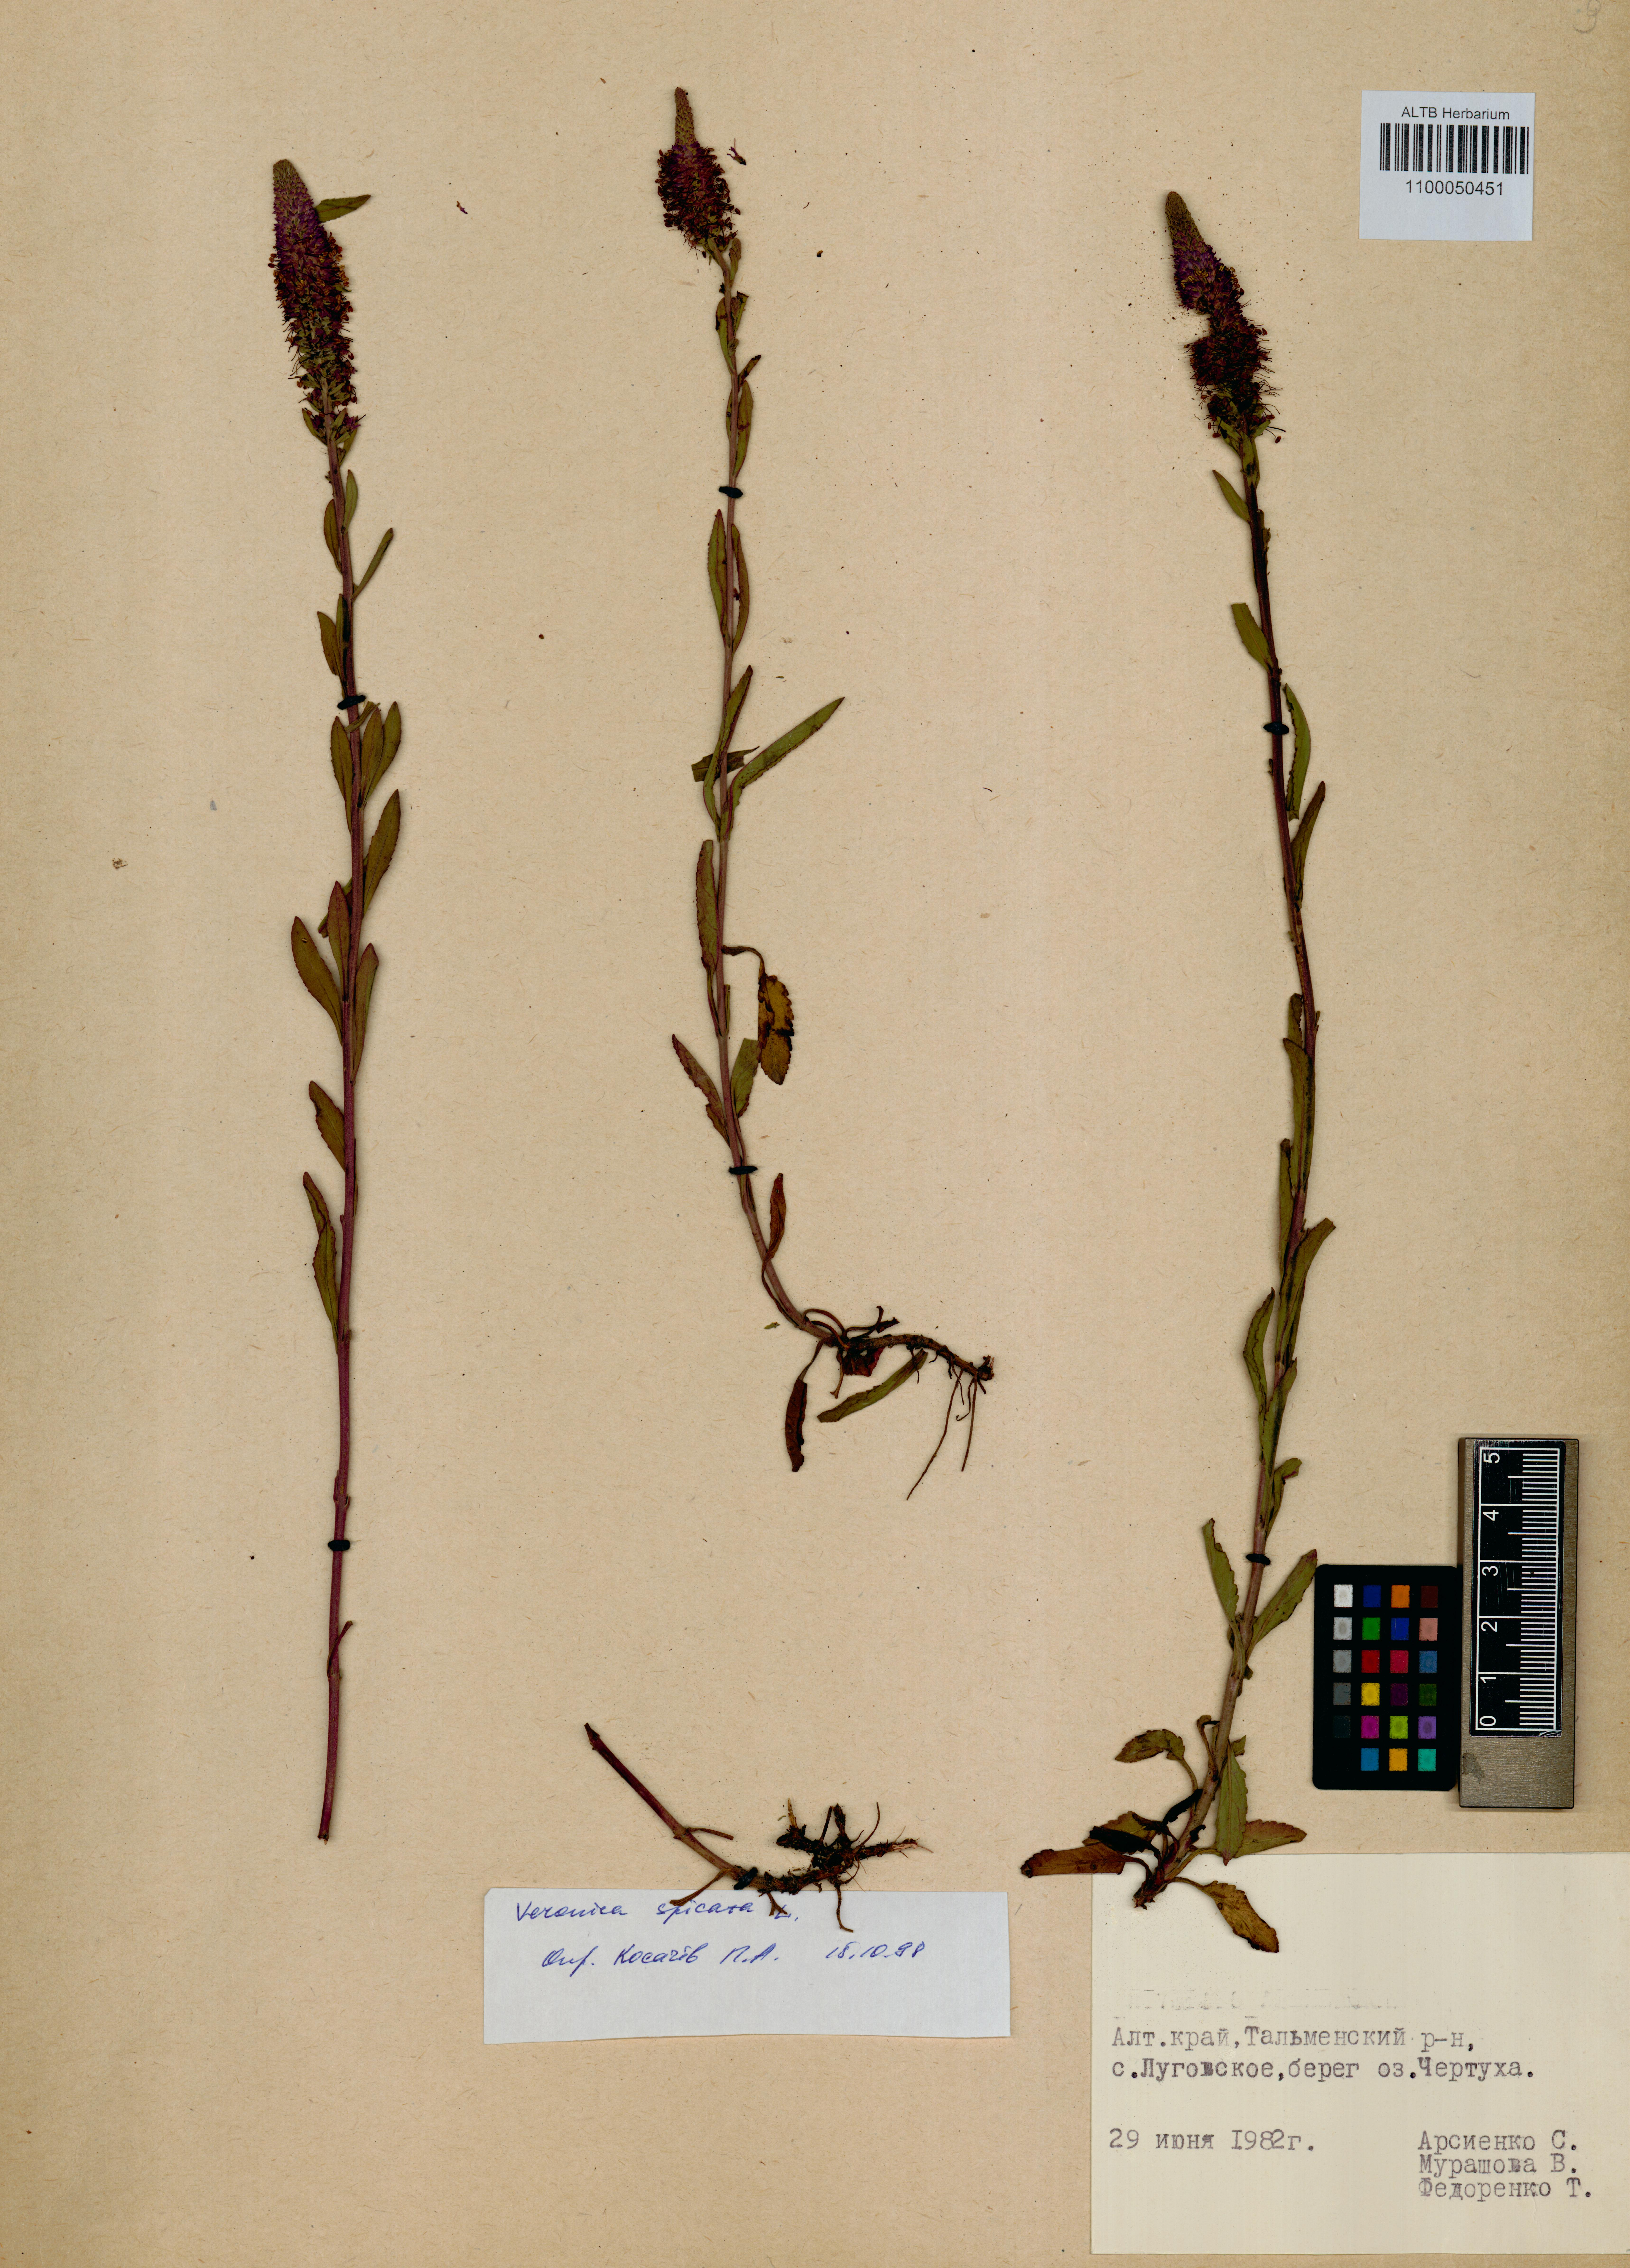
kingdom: Plantae
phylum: Tracheophyta
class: Magnoliopsida
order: Lamiales
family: Plantaginaceae
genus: Veronica
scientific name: Veronica spicata
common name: Spiked speedwell
